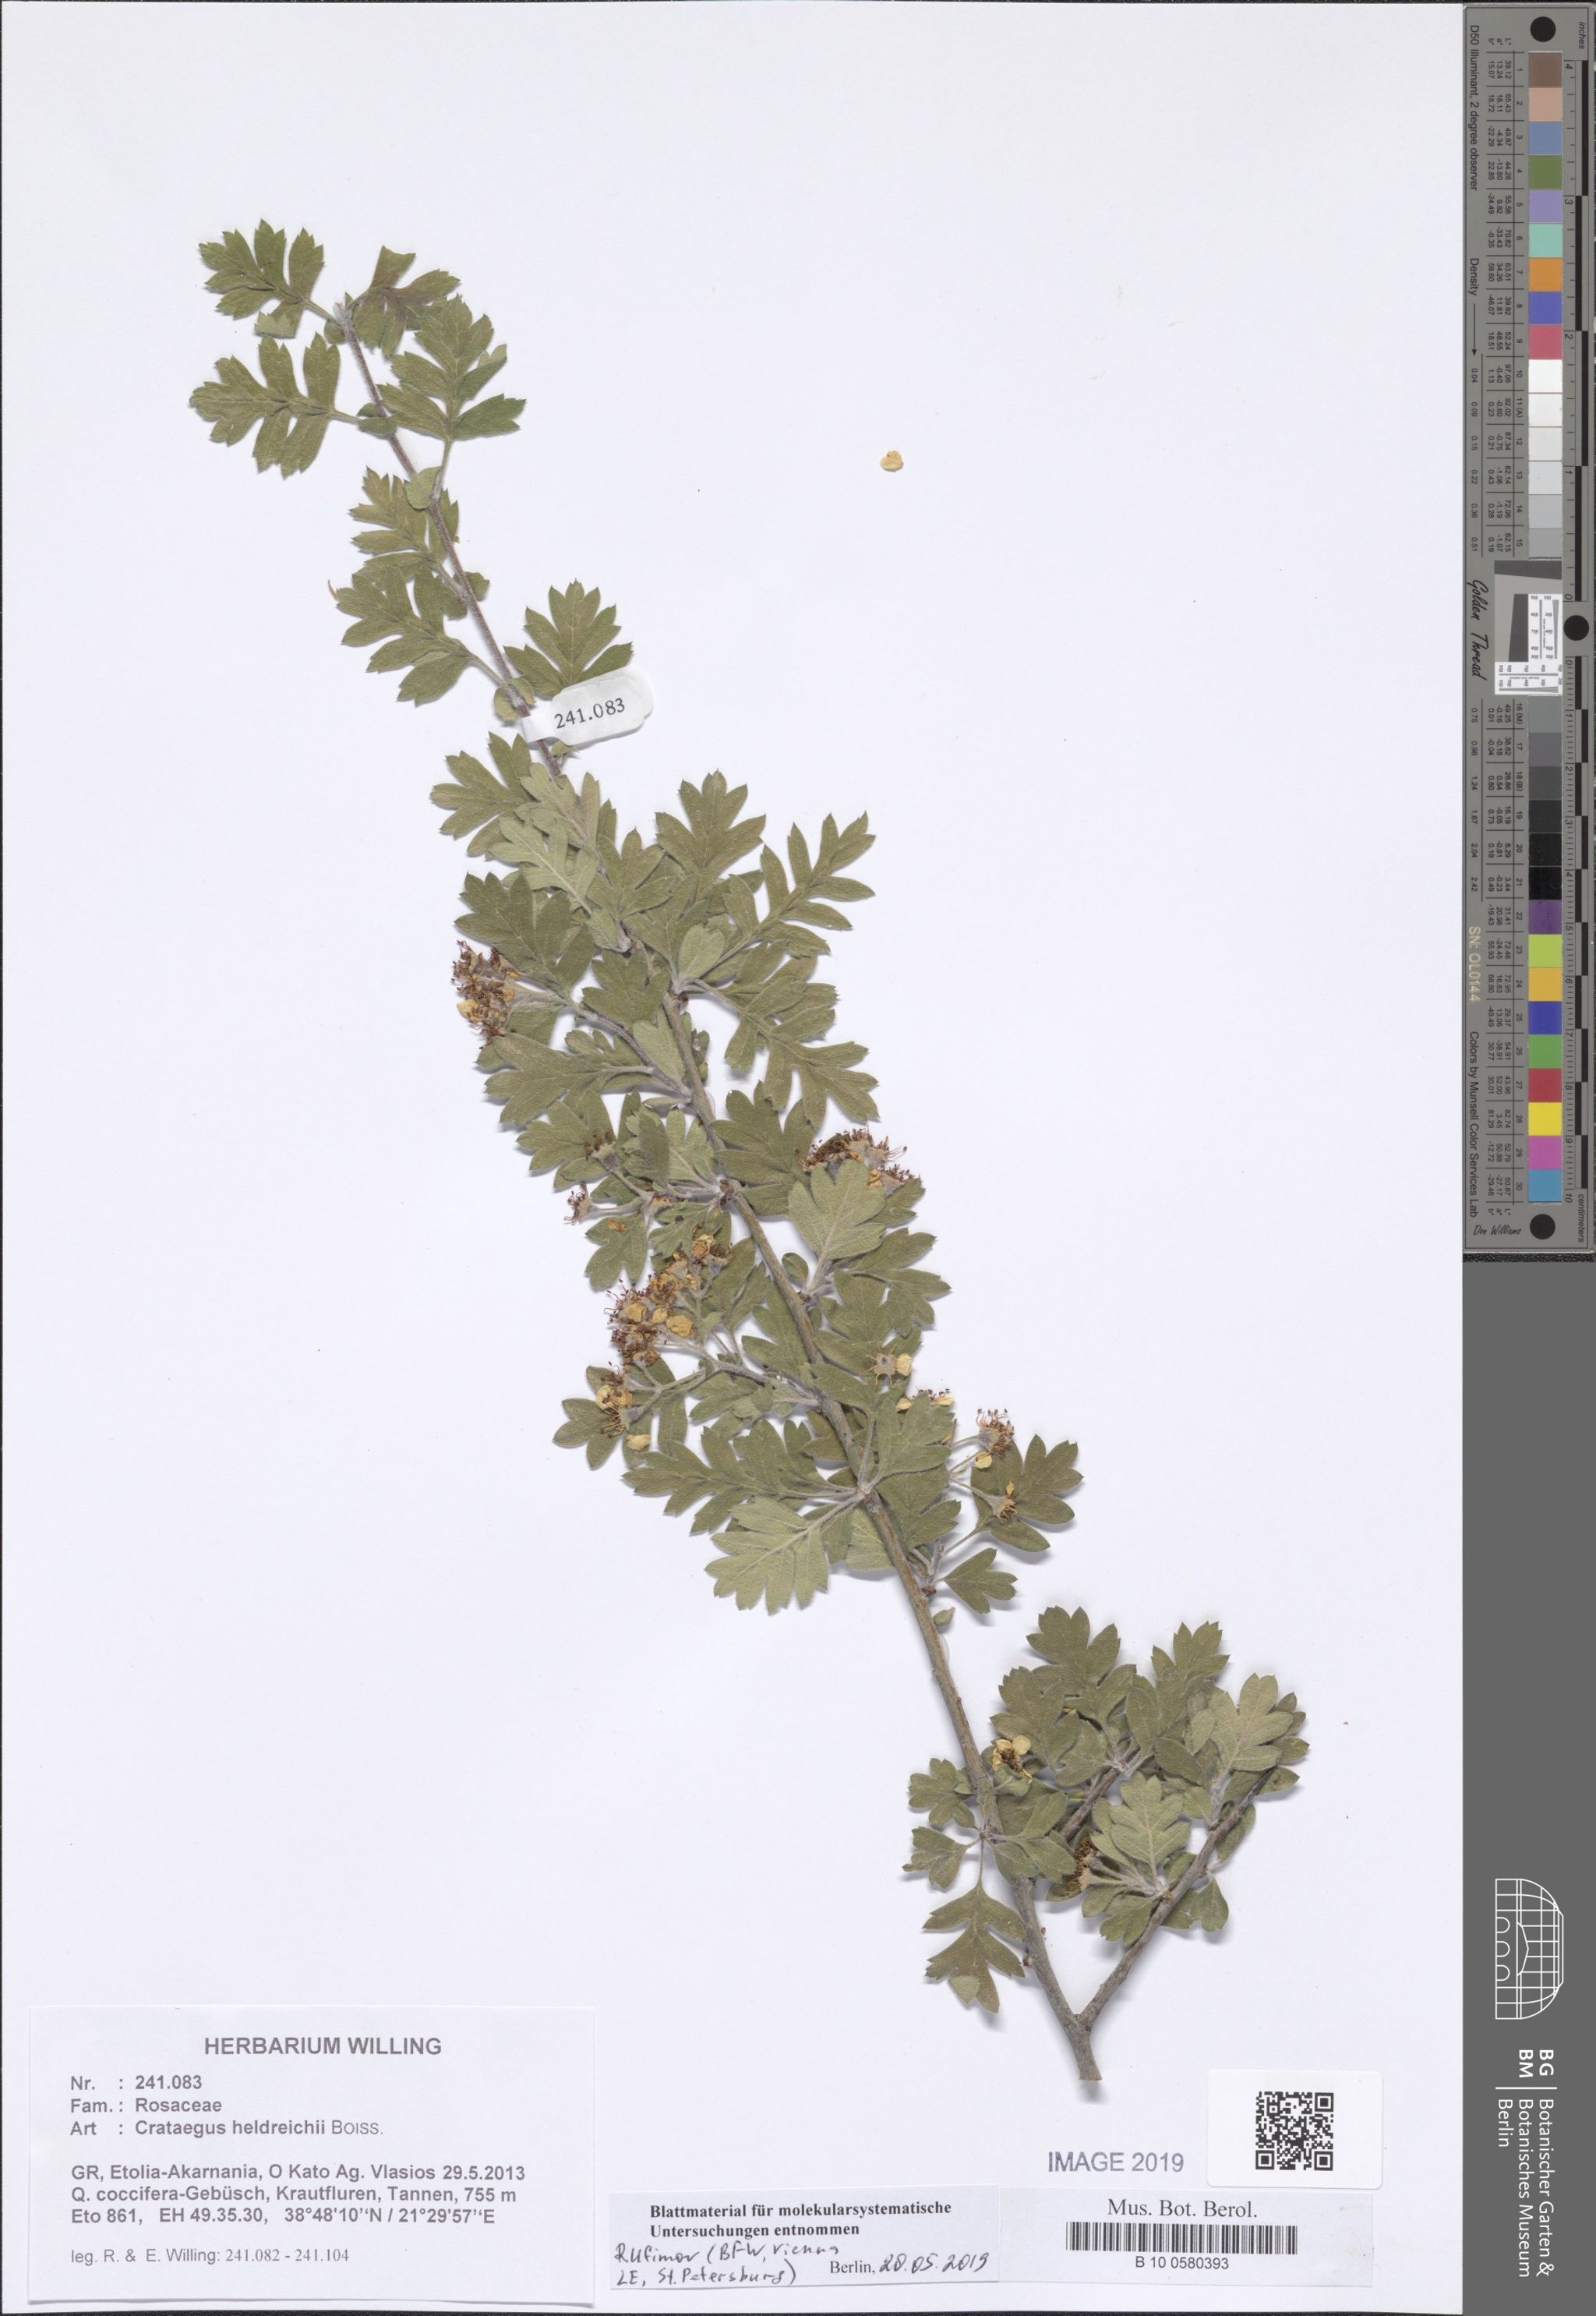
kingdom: Plantae
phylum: Tracheophyta
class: Magnoliopsida
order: Rosales
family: Rosaceae
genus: Crataegus
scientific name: Crataegus heldreichii
